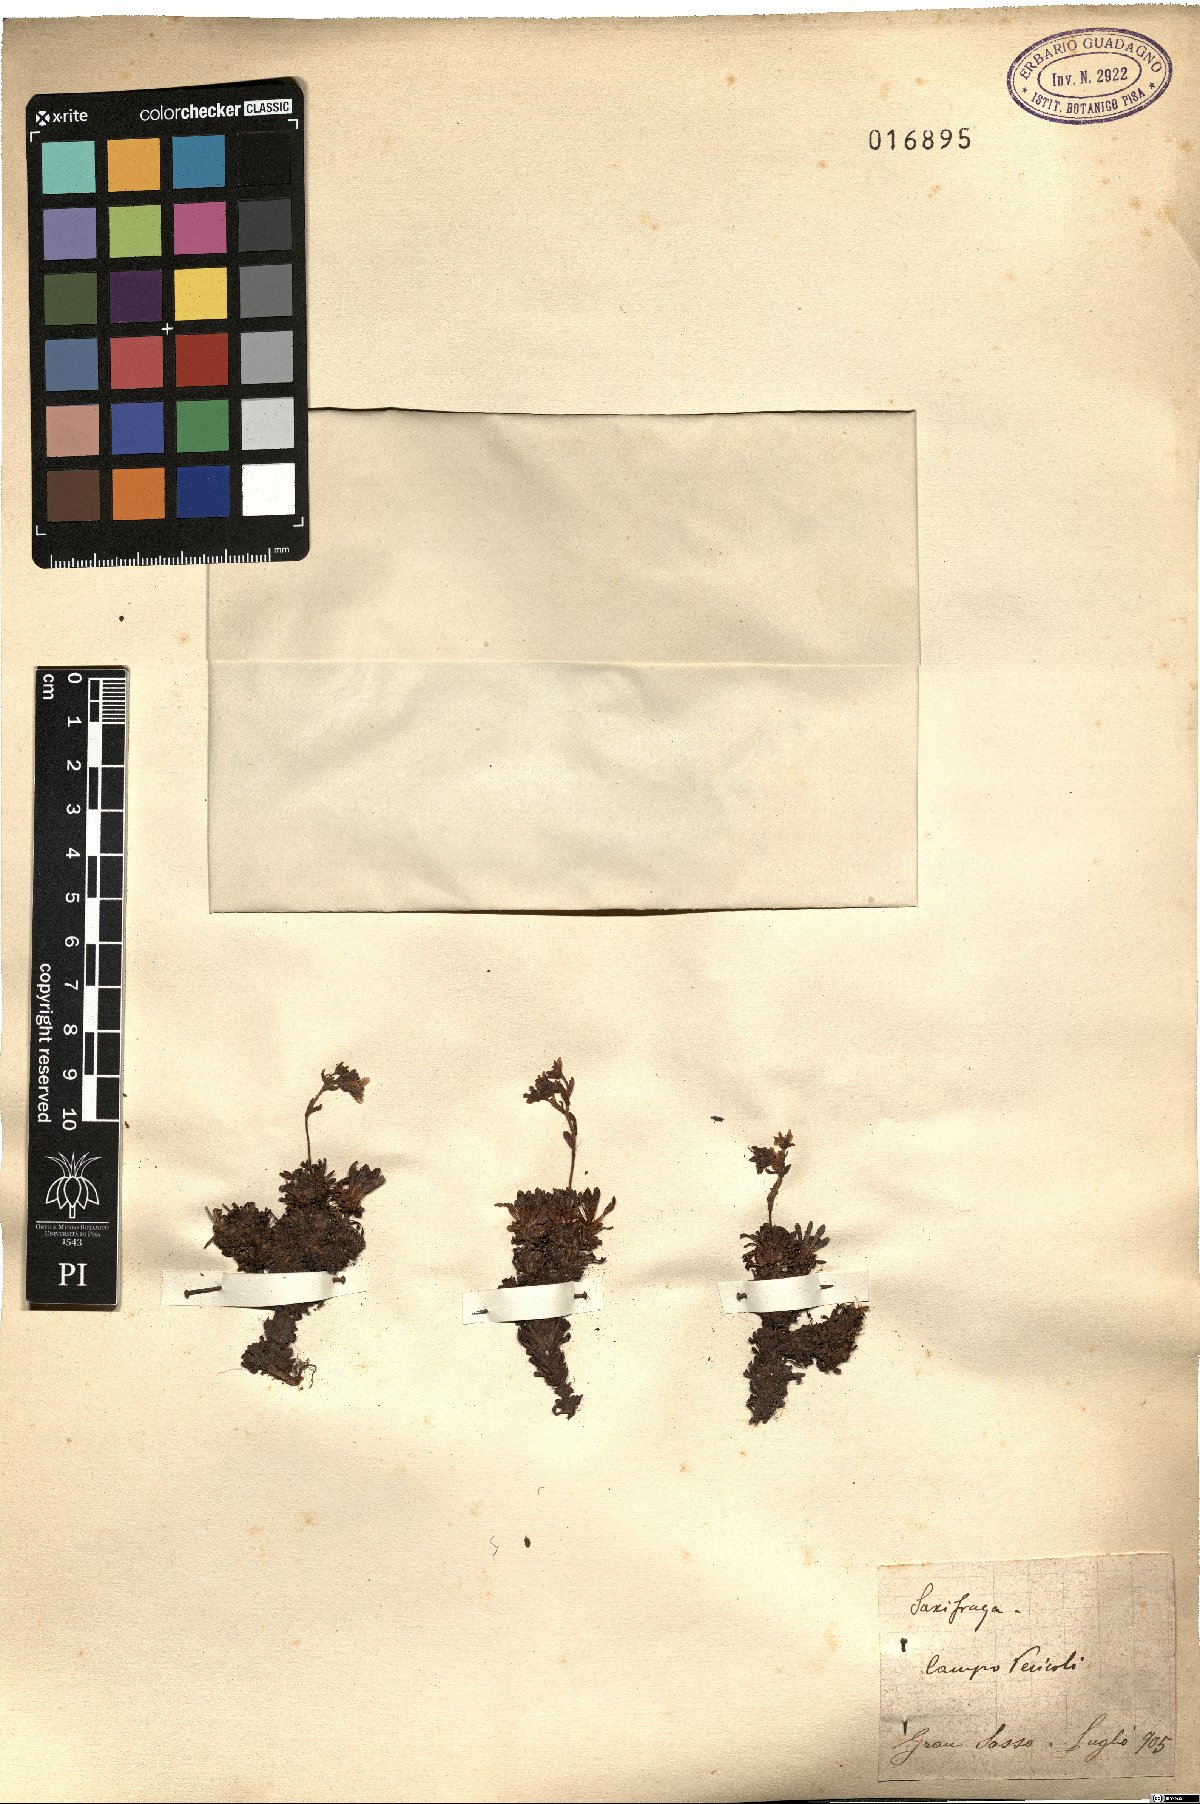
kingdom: Plantae
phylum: Tracheophyta
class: Magnoliopsida
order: Saxifragales
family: Saxifragaceae
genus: Saxifraga
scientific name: Saxifraga
